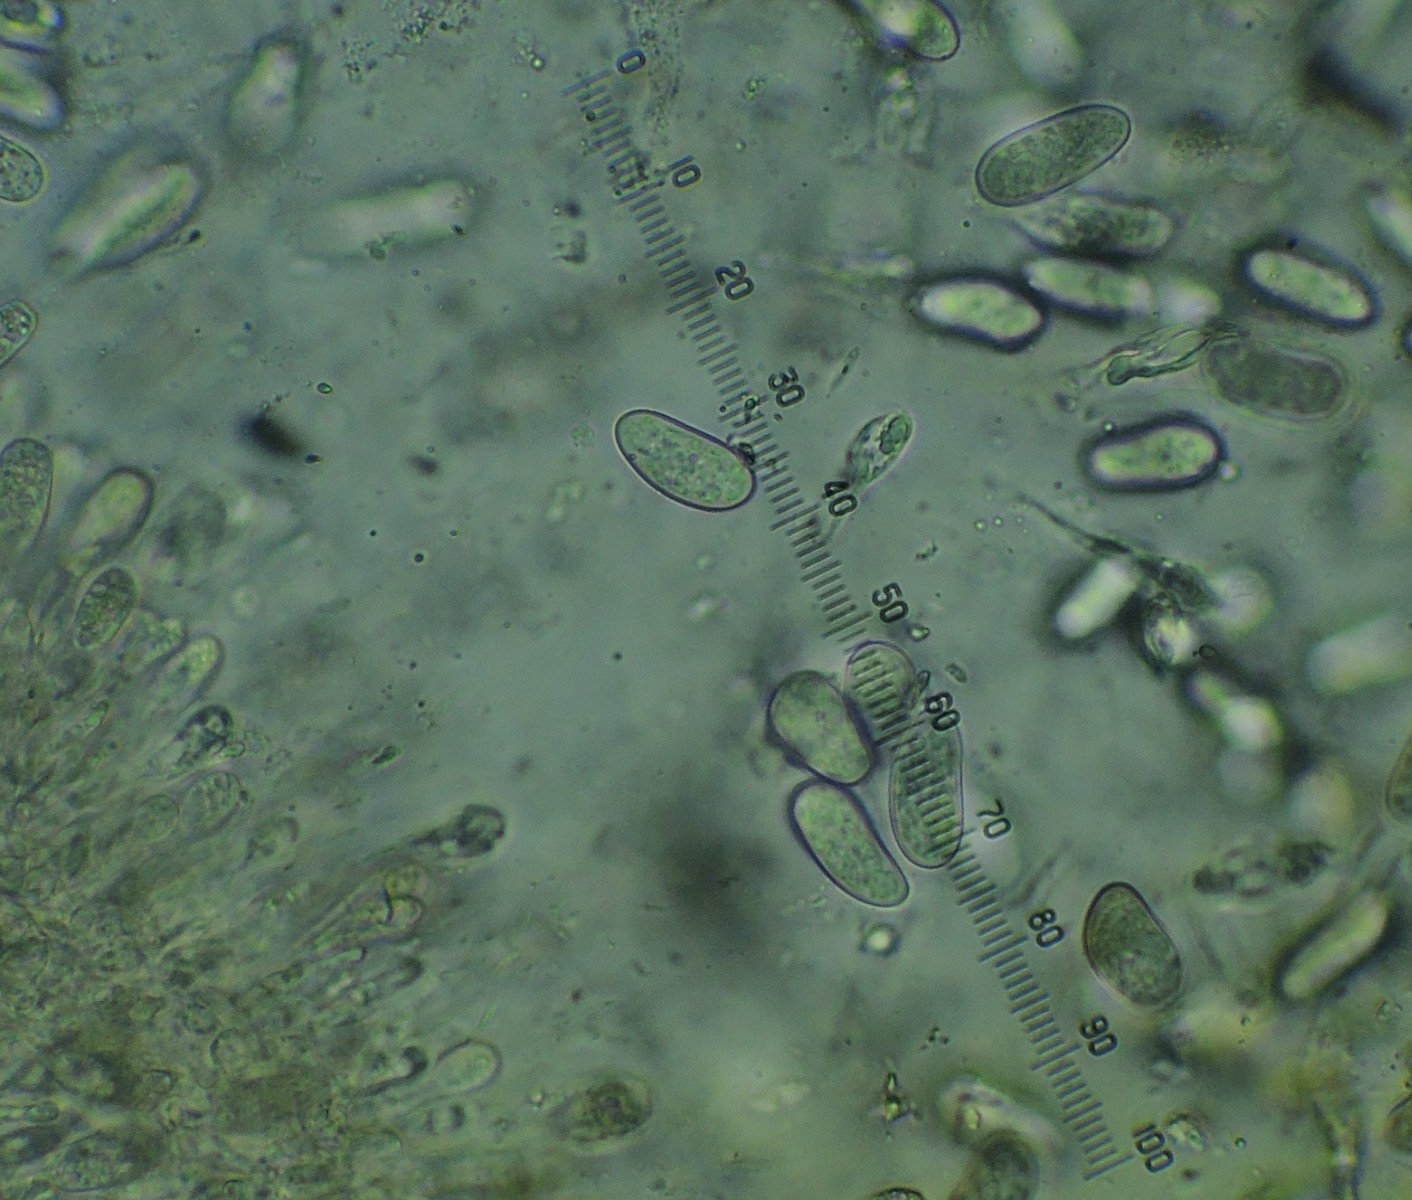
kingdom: Fungi
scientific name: Fungi
